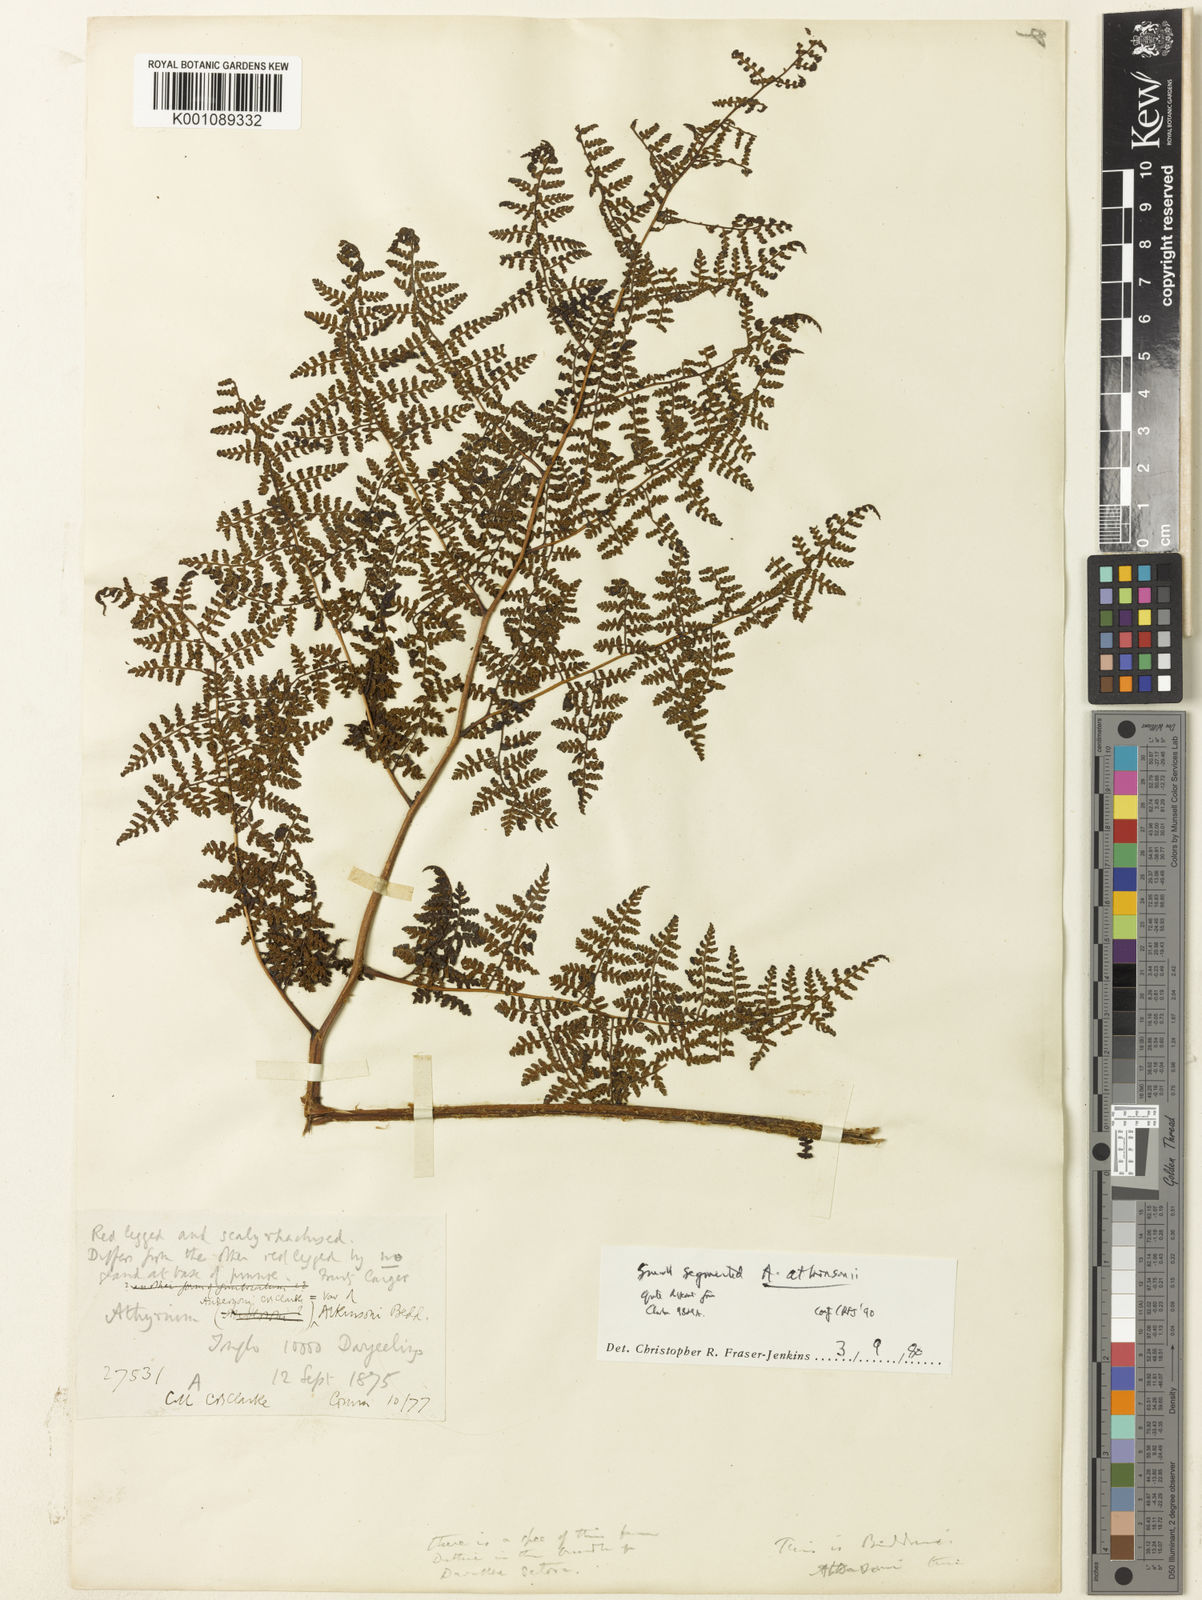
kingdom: Plantae
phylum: Tracheophyta
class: Polypodiopsida
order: Polypodiales
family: Athyriaceae
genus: Athyrium
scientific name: Athyrium
